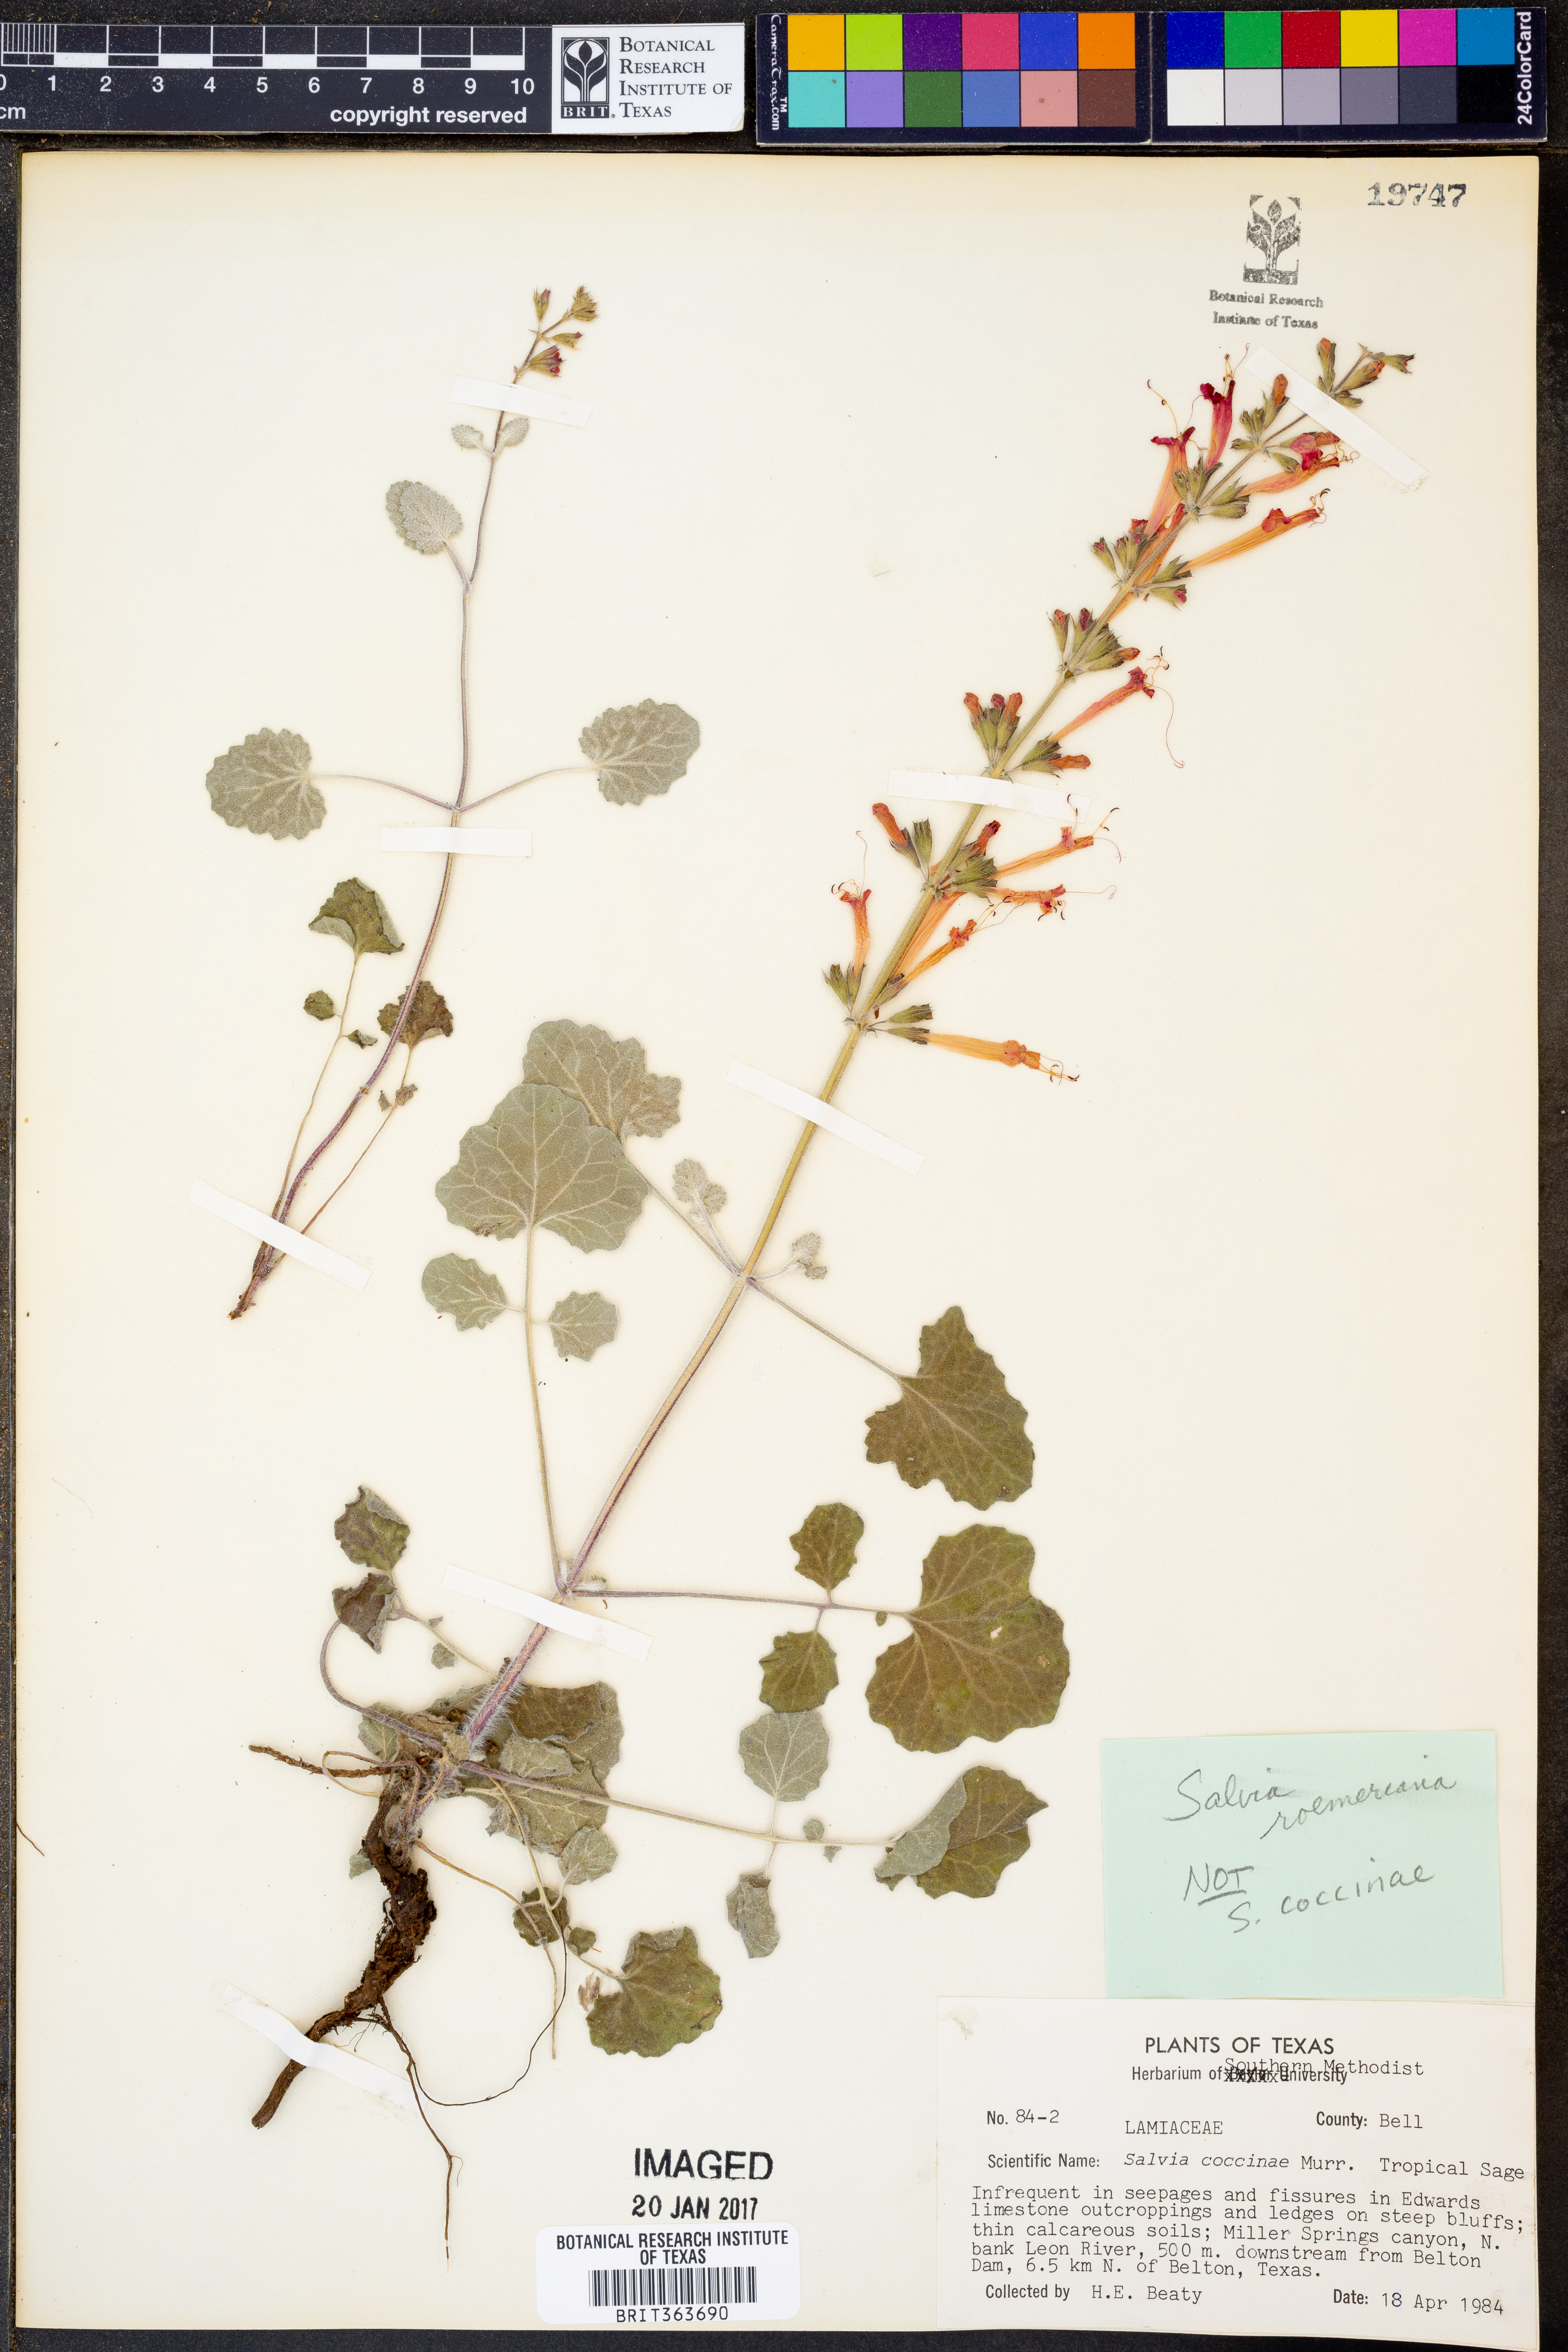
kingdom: Plantae
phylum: Tracheophyta
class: Magnoliopsida
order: Lamiales
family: Lamiaceae
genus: Salvia
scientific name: Salvia roemeriana
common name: Cedar sage
